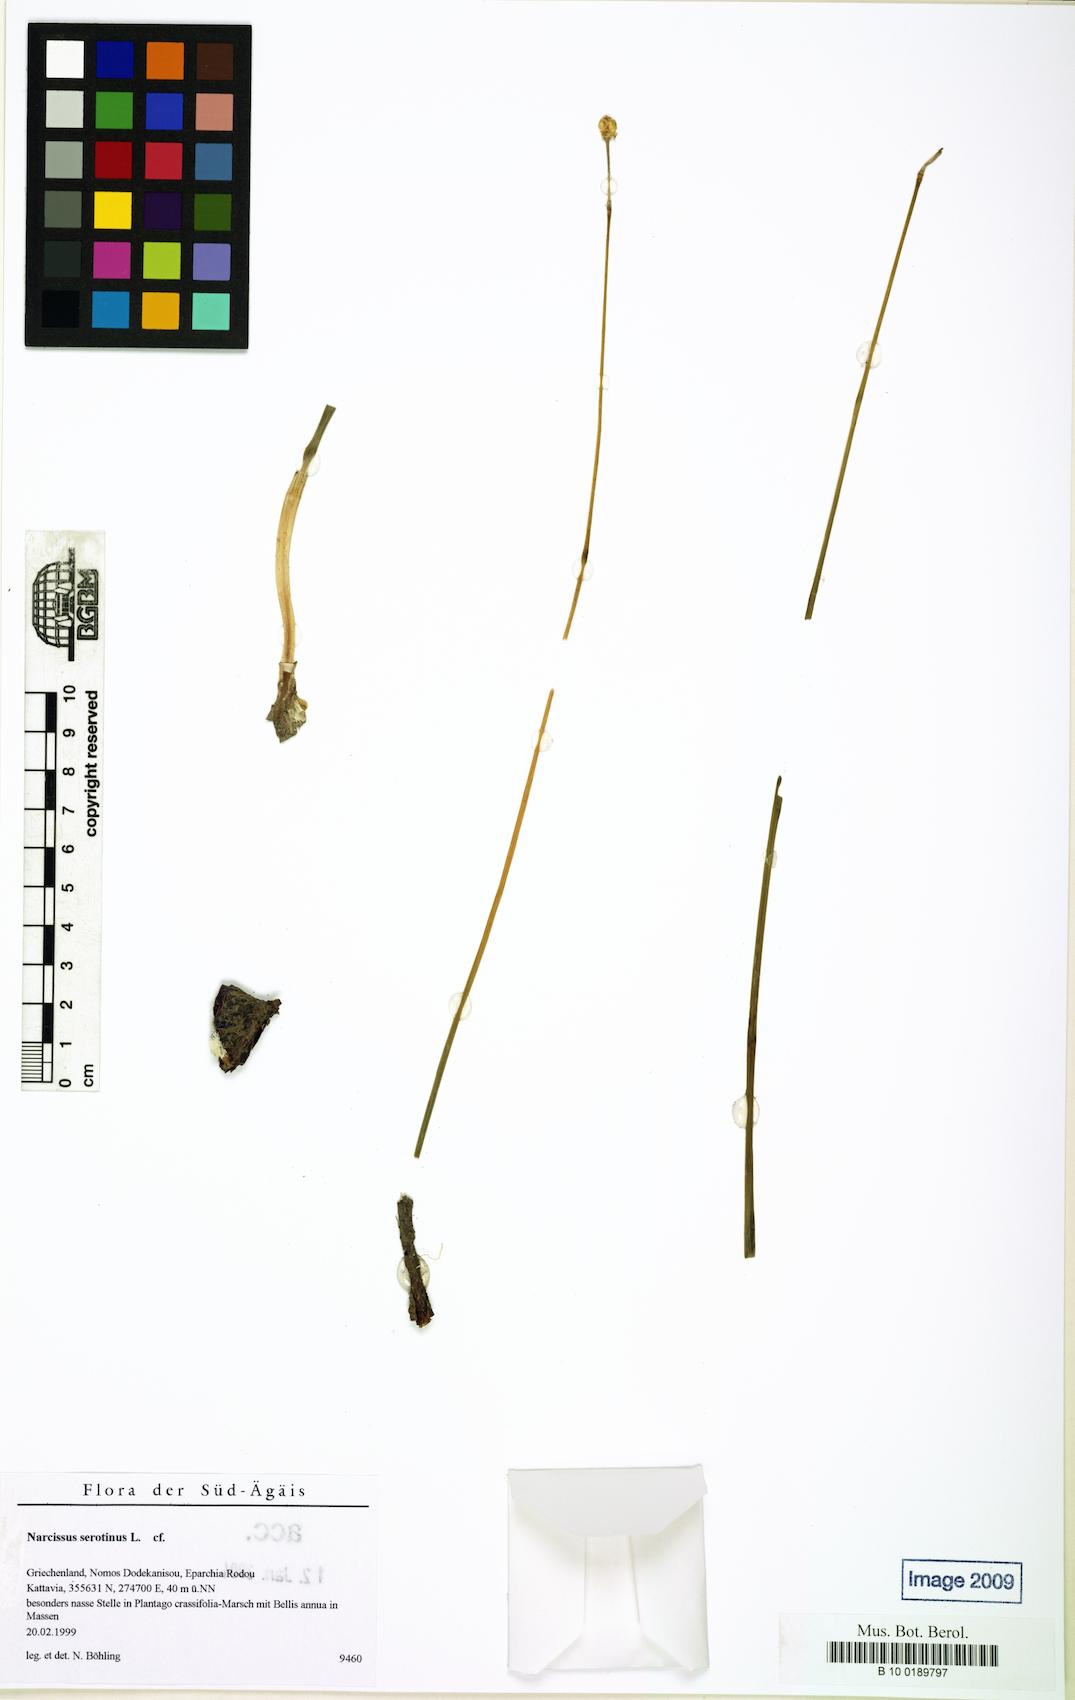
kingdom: Plantae
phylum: Tracheophyta
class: Liliopsida
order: Asparagales
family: Amaryllidaceae
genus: Narcissus
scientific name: Narcissus serotinus
